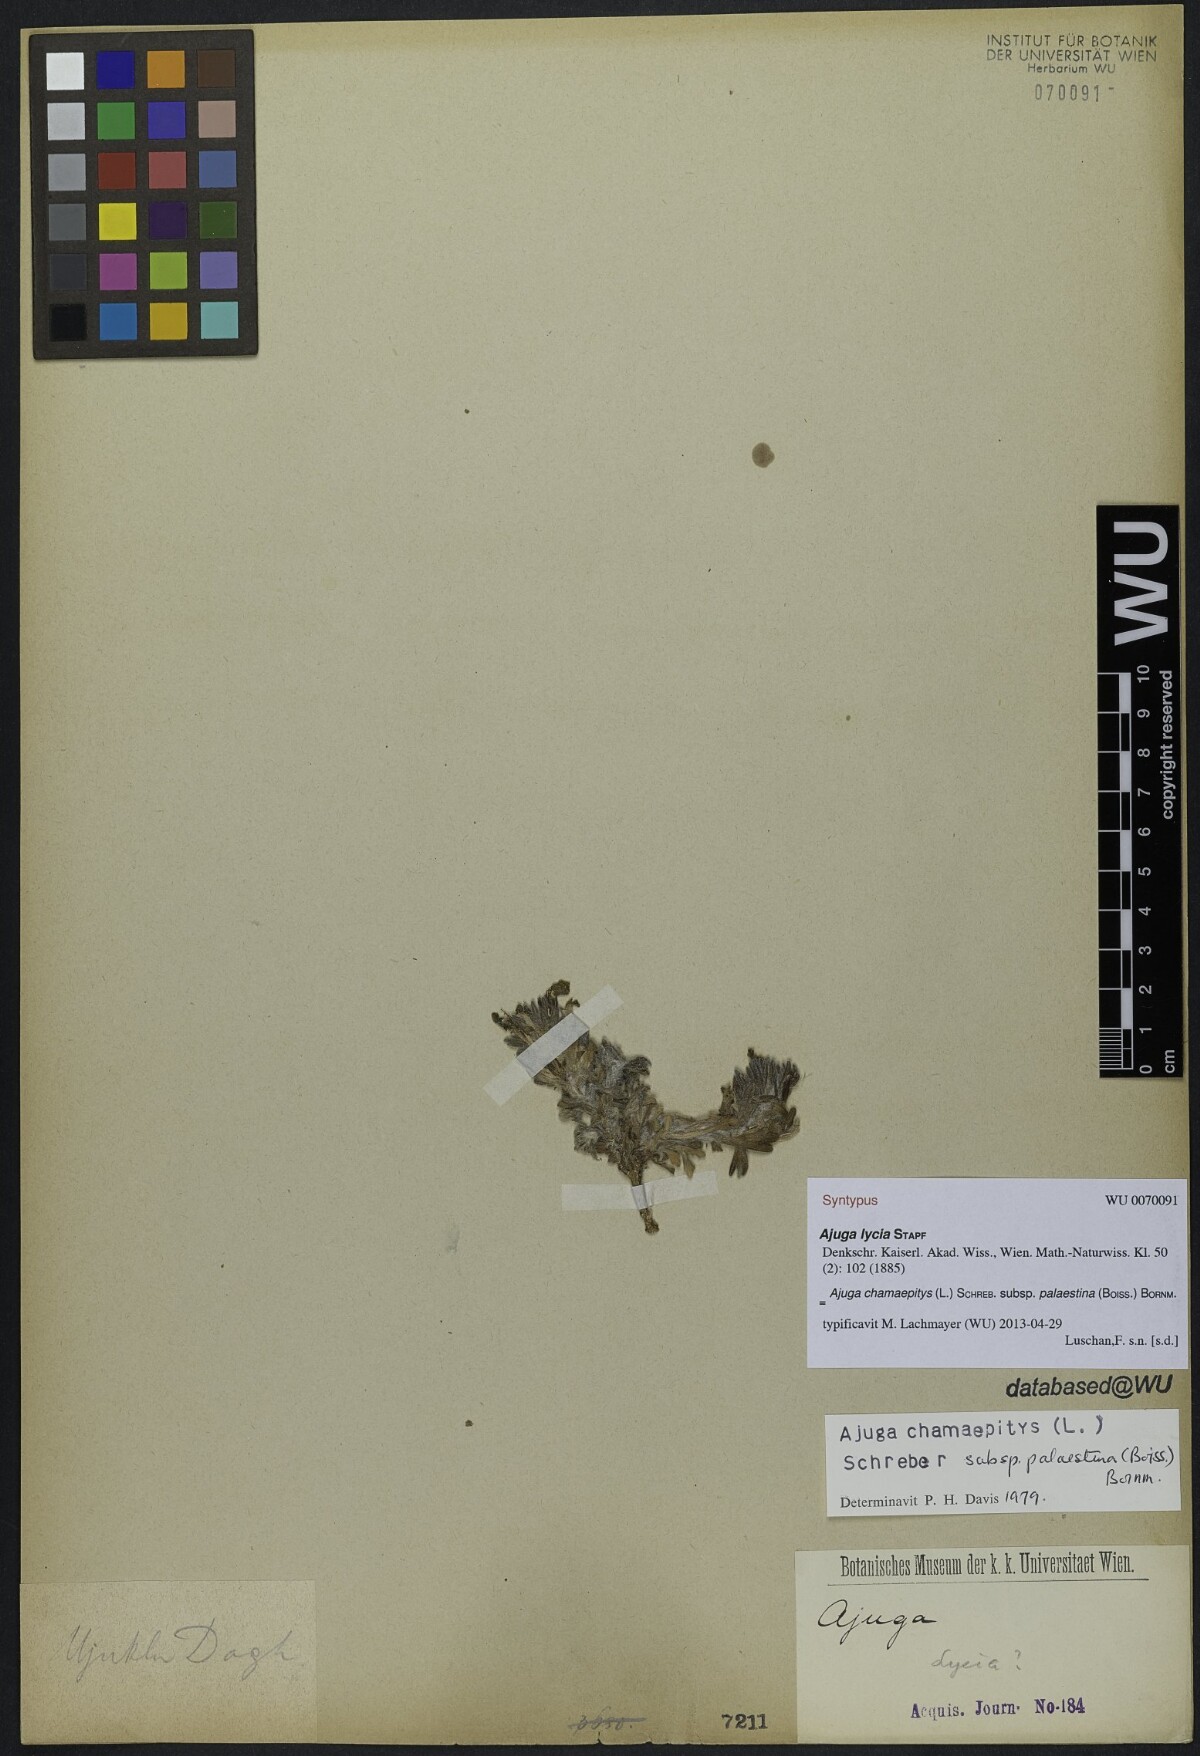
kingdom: Plantae
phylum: Tracheophyta
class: Magnoliopsida
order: Lamiales
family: Lamiaceae
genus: Ajuga
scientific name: Ajuga chamaepitys
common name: Ground-pine
